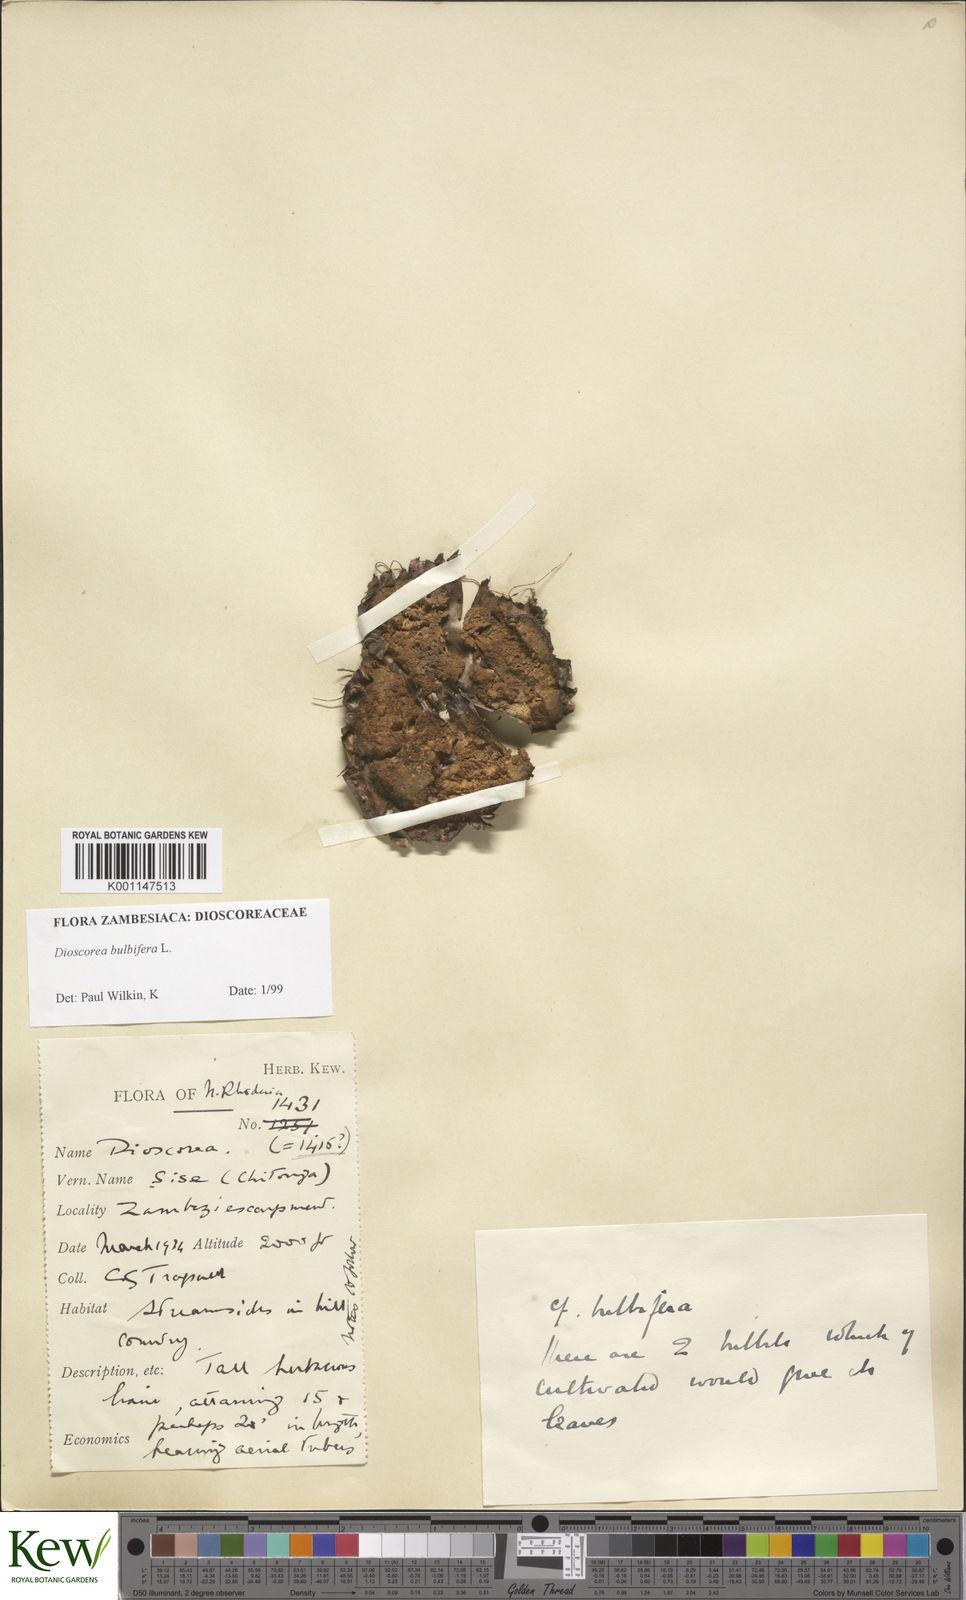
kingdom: Plantae
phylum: Tracheophyta
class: Liliopsida
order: Dioscoreales
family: Dioscoreaceae
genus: Dioscorea
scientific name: Dioscorea bulbifera
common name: Air yam
